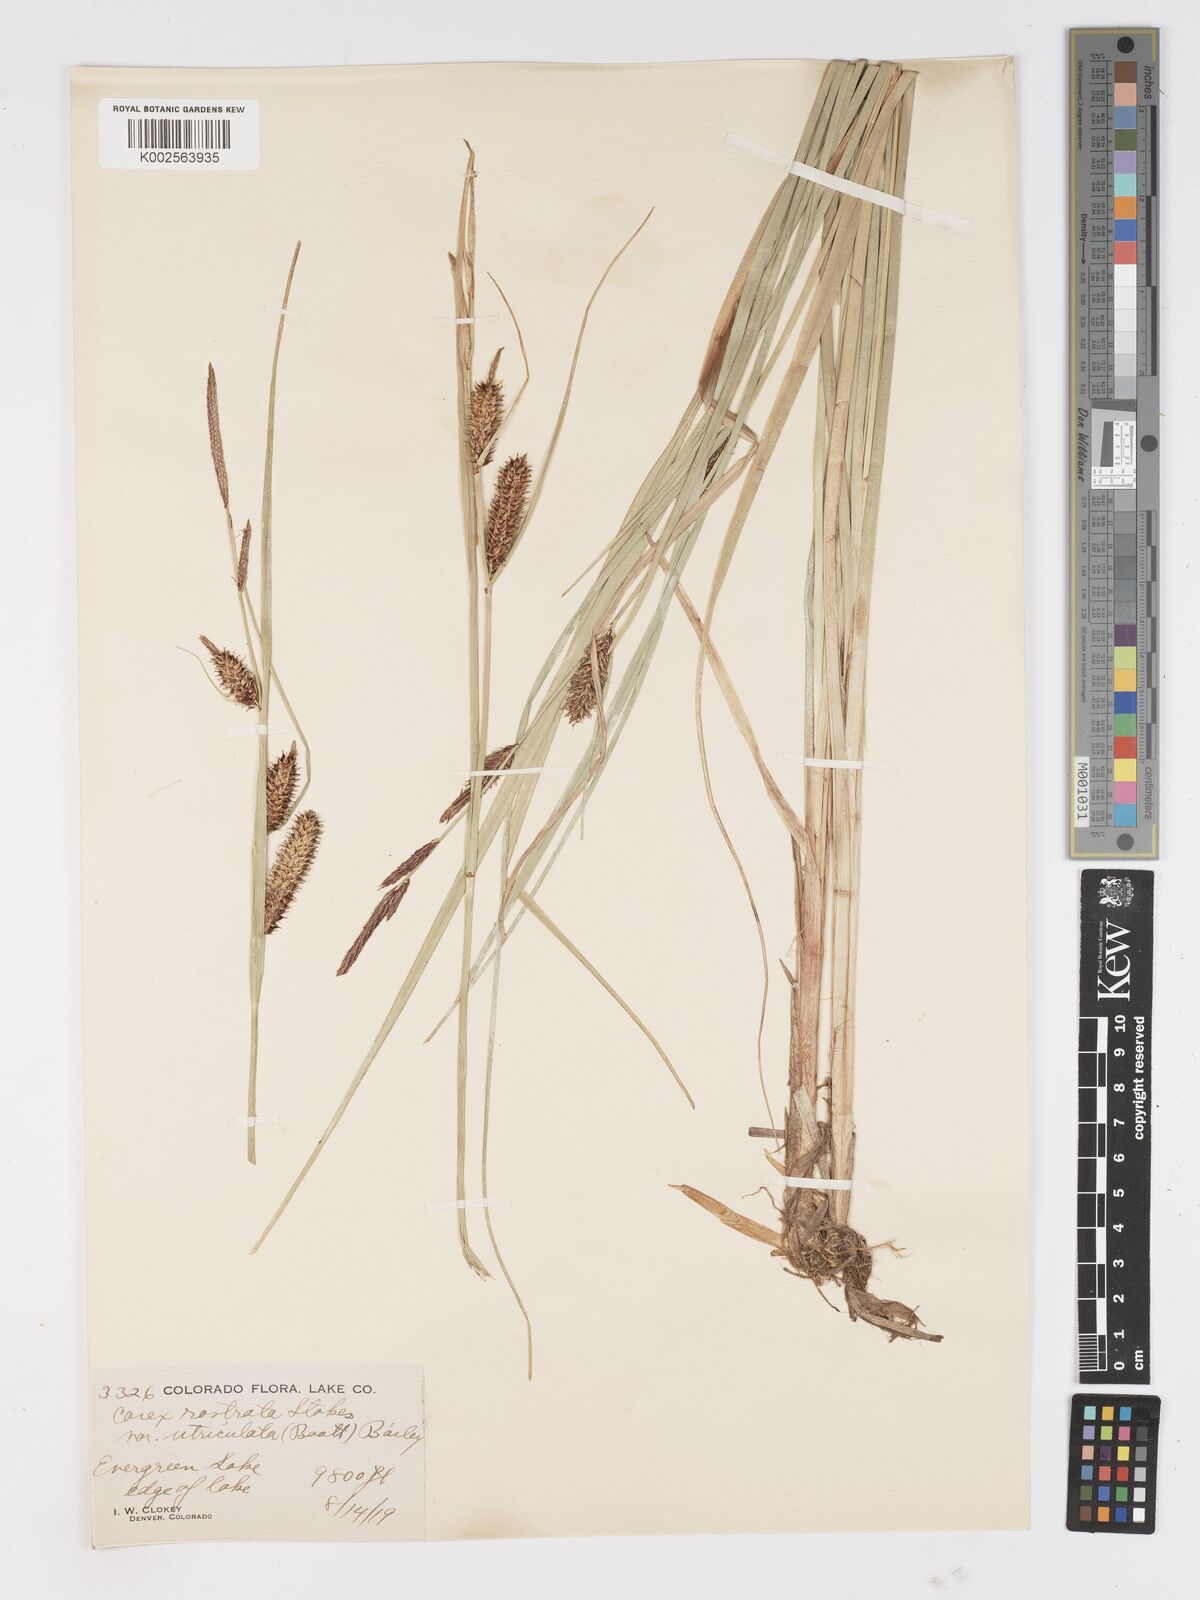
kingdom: Plantae
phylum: Tracheophyta
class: Liliopsida
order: Poales
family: Cyperaceae
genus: Carex
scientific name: Carex rostrata
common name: Bottle sedge
